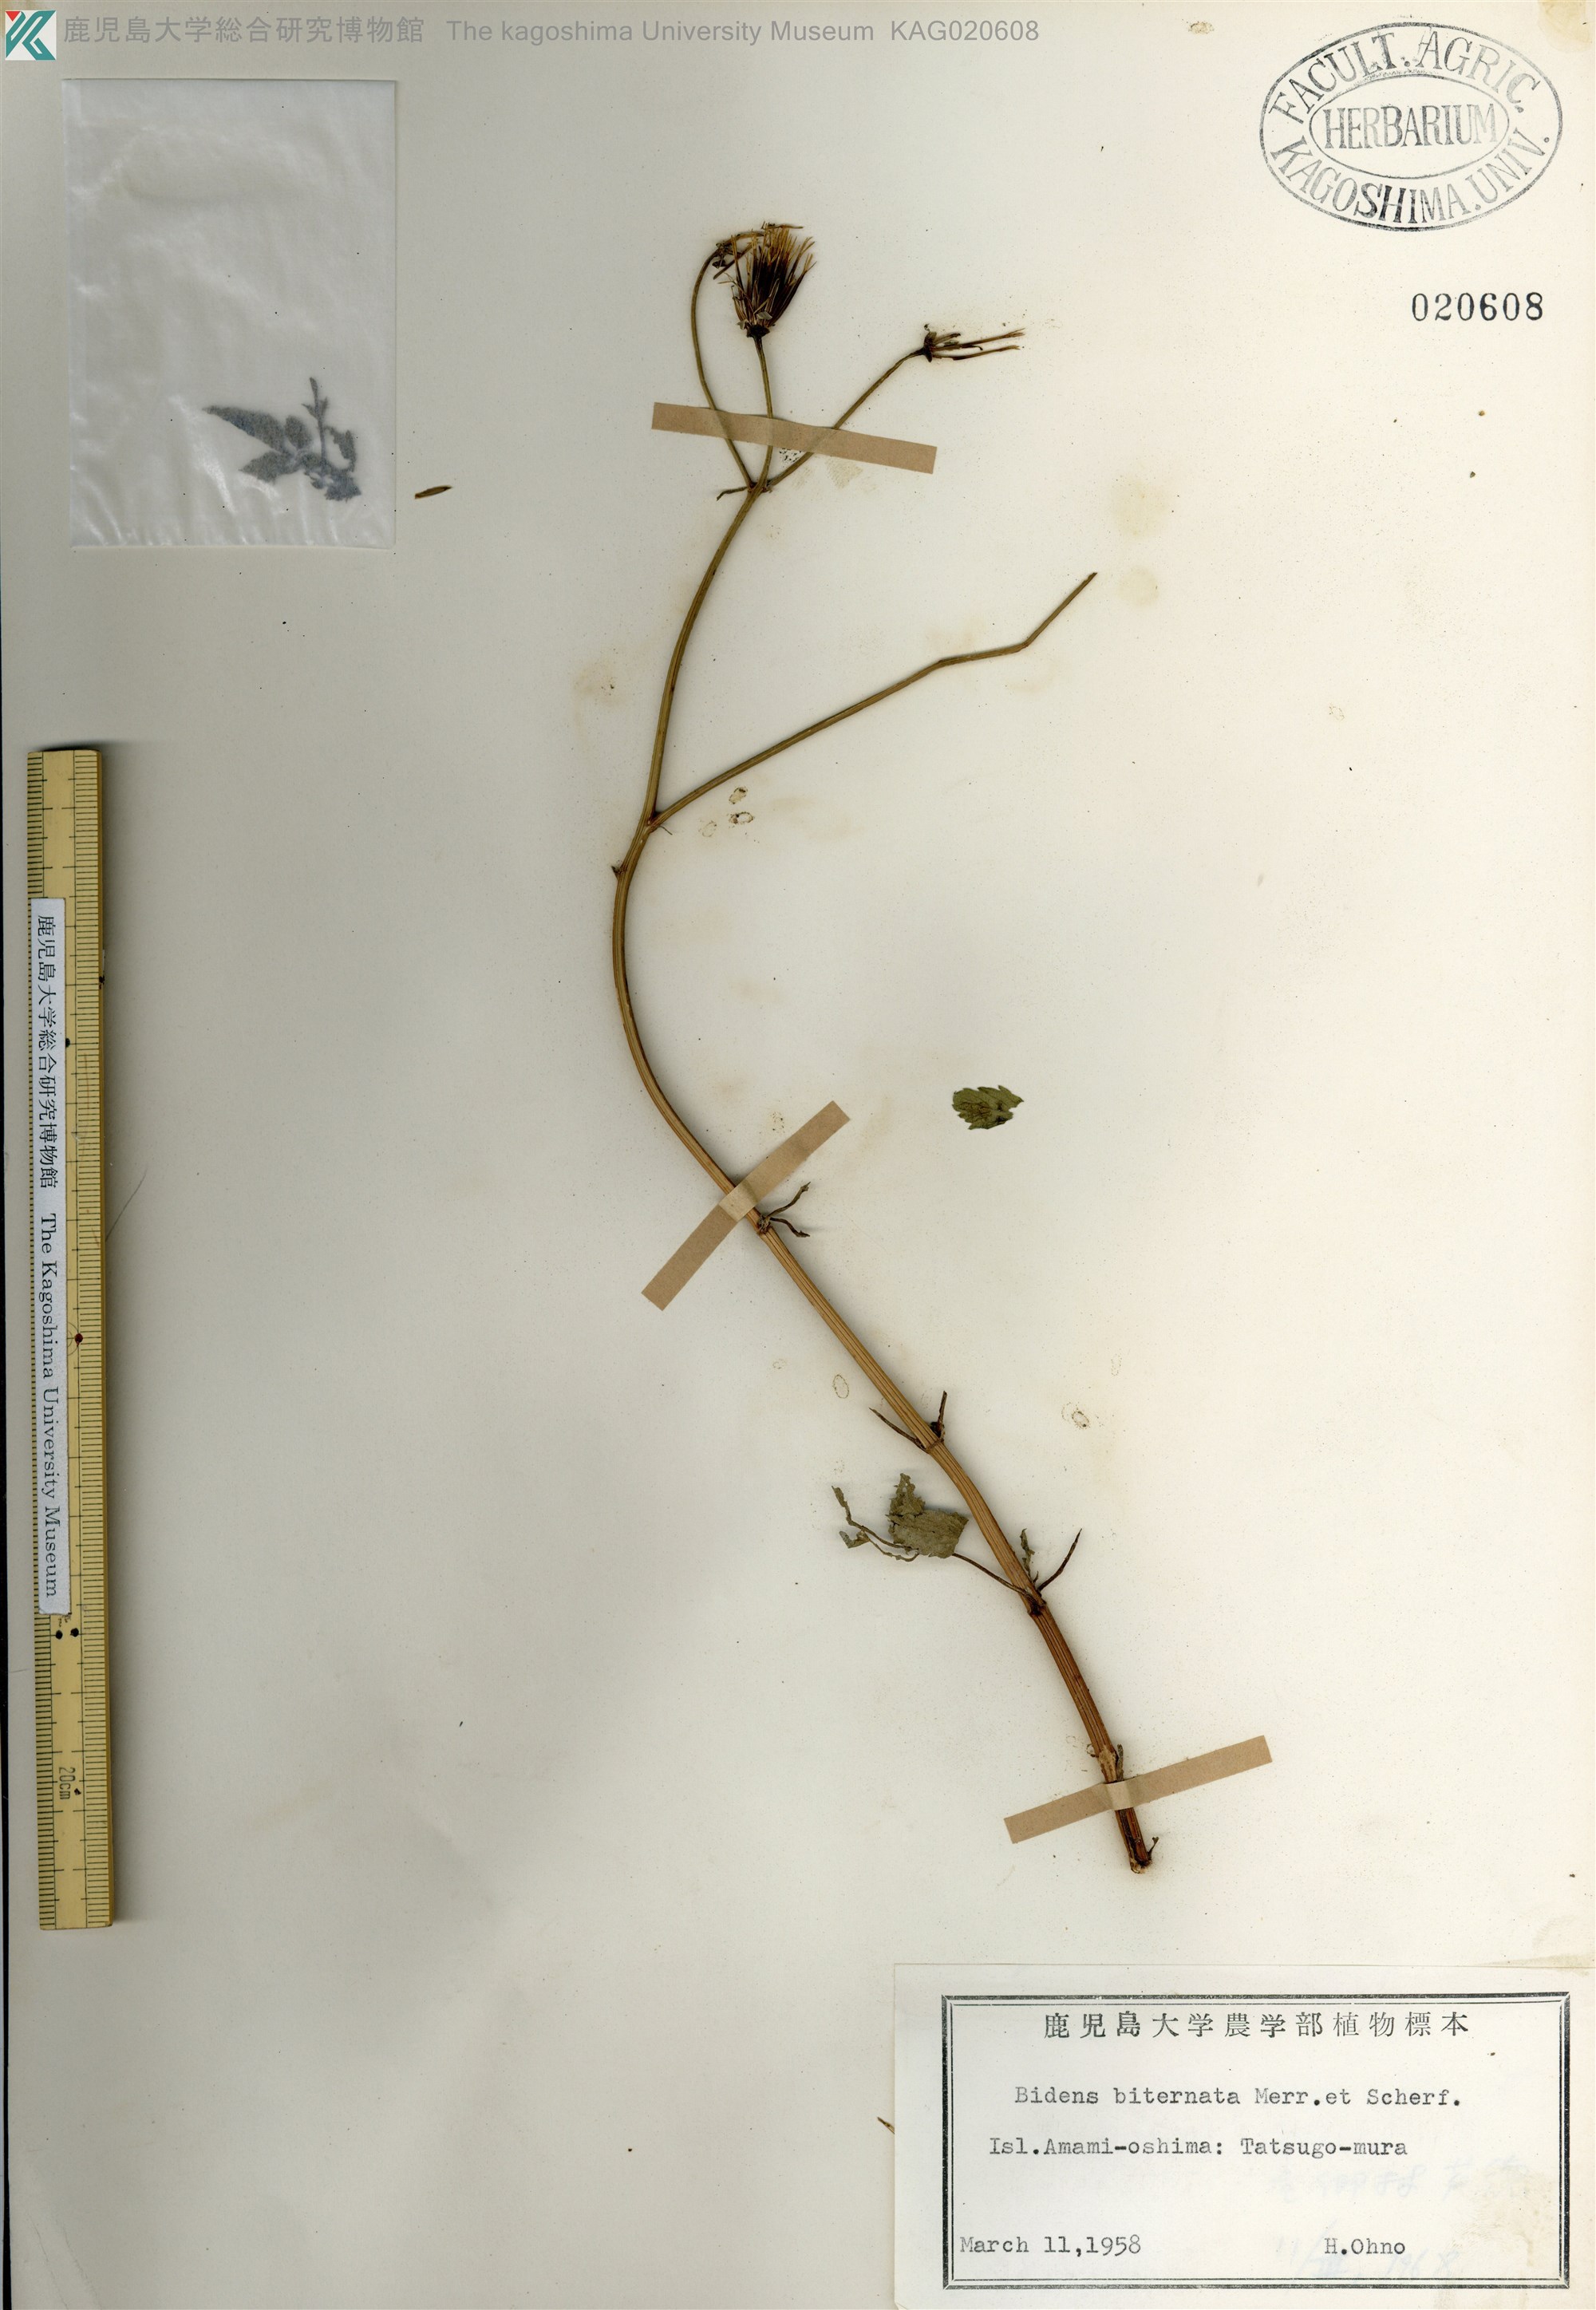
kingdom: Plantae
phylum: Tracheophyta
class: Magnoliopsida
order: Asterales
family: Asteraceae
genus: Bidens
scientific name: Bidens biternata
